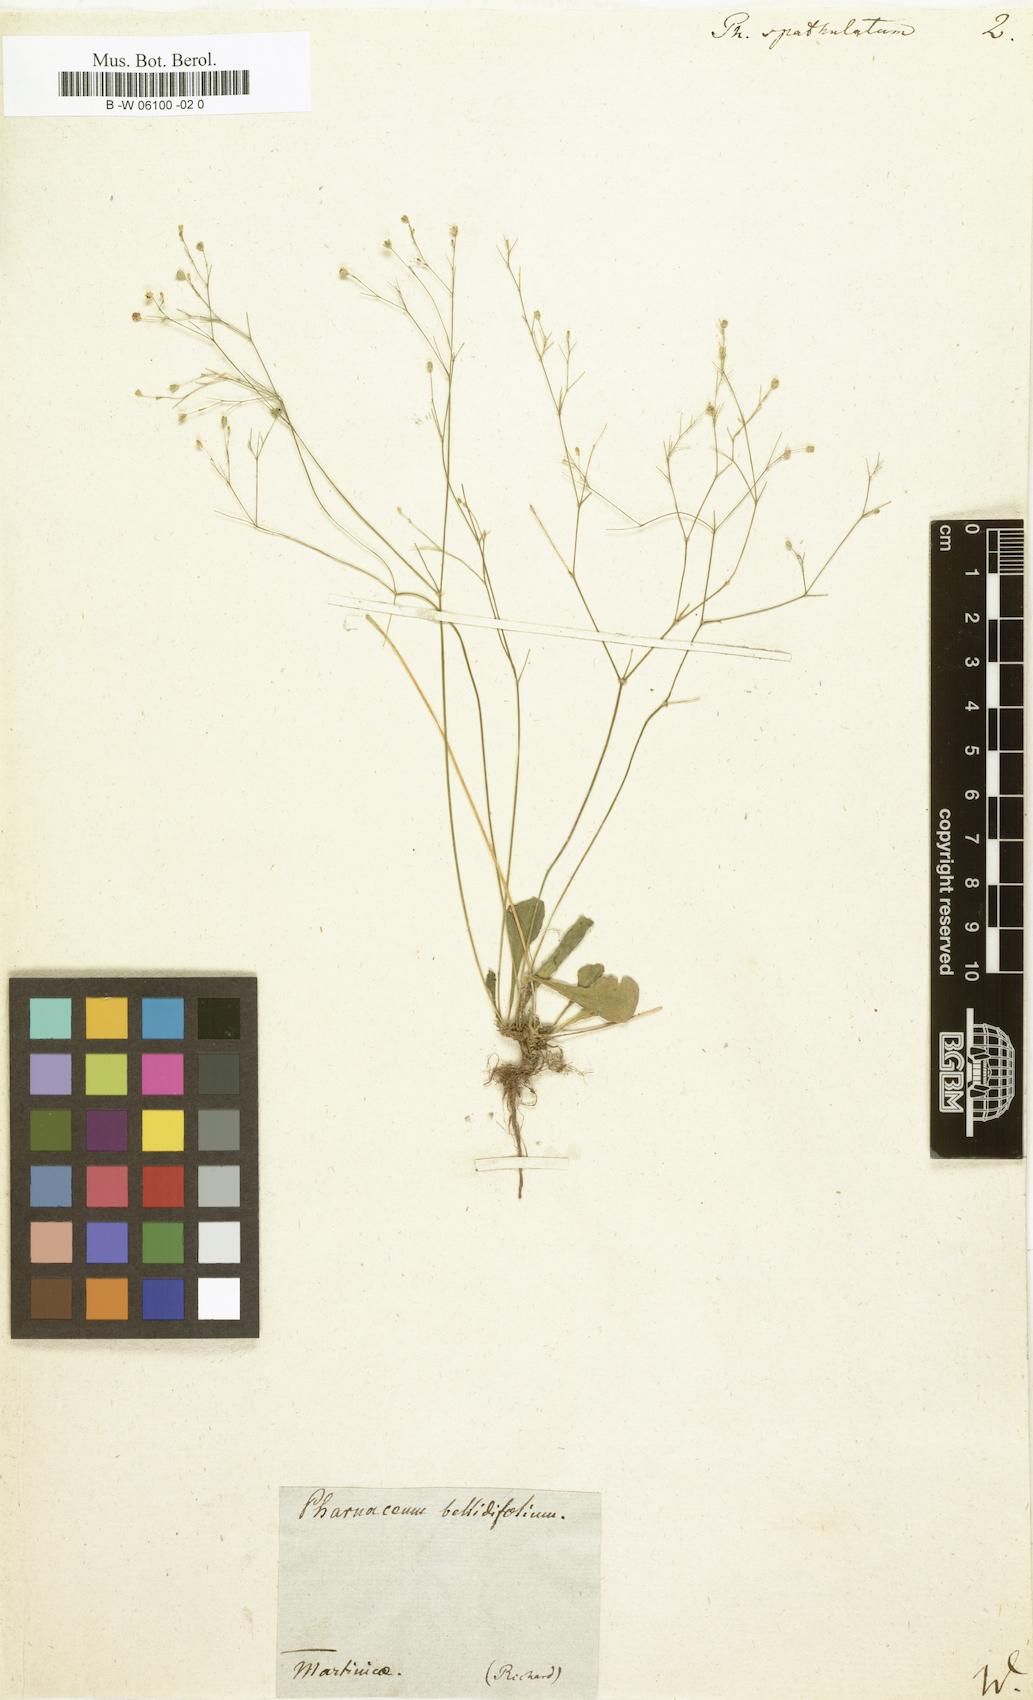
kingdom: Plantae
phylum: Tracheophyta
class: Magnoliopsida
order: Caryophyllales
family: Molluginaceae
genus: Paramollugo
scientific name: Paramollugo nudicaulis
